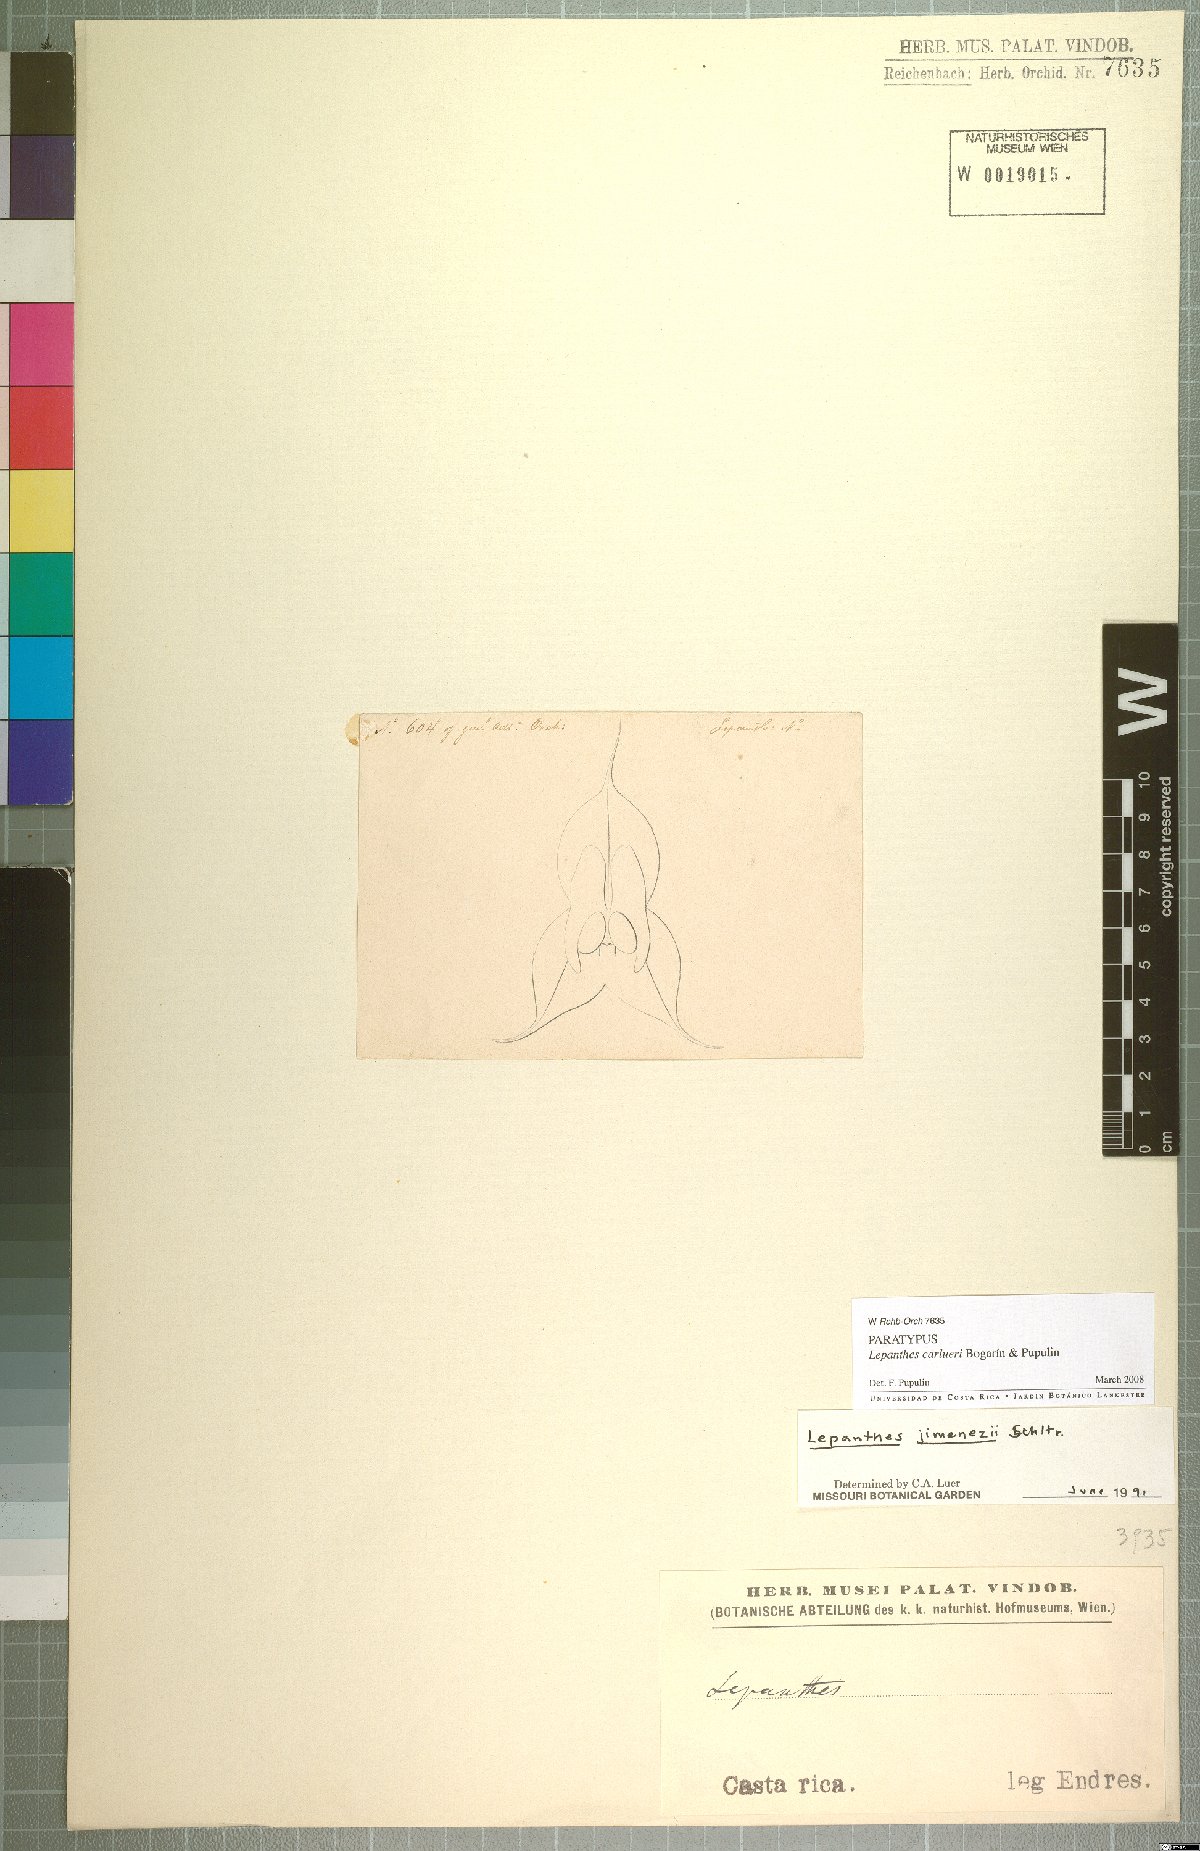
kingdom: Plantae
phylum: Tracheophyta
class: Liliopsida
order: Asparagales
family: Orchidaceae
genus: Lepanthes
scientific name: Lepanthes caroli-lueri
